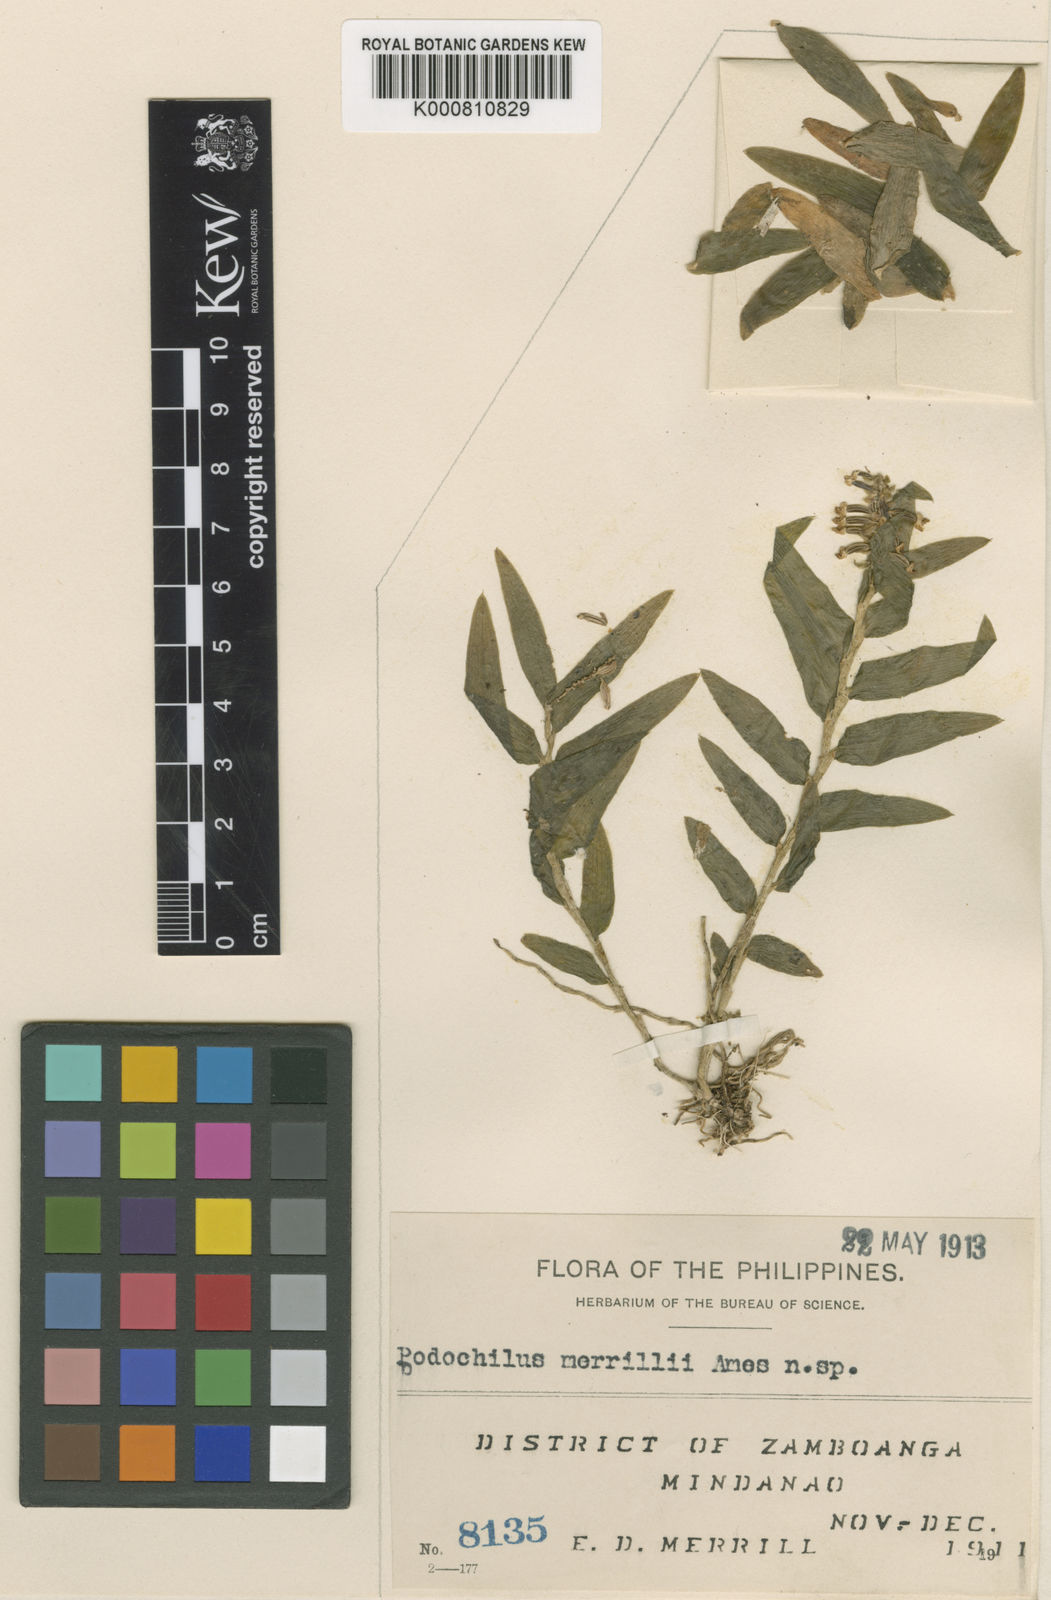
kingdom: Plantae
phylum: Tracheophyta
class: Liliopsida
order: Asparagales
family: Orchidaceae
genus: Appendicula
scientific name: Appendicula merrillii
